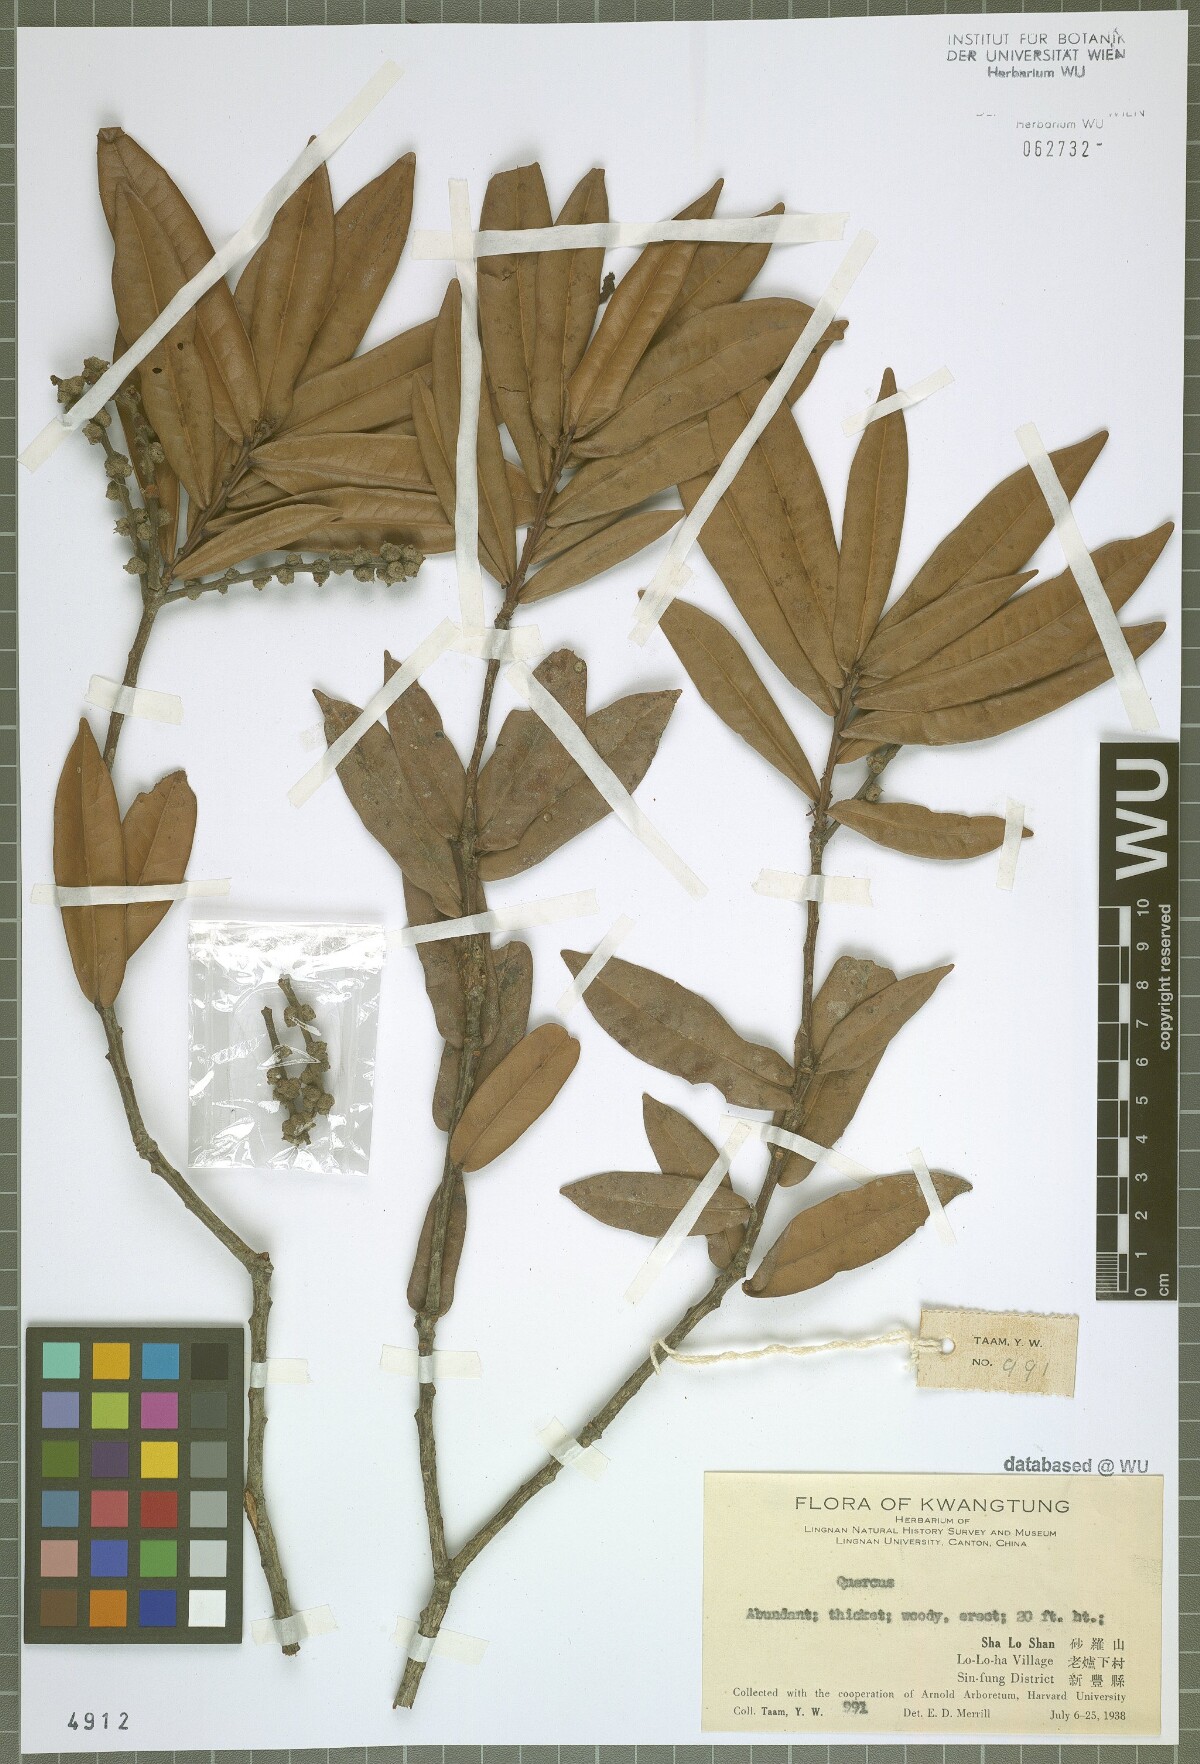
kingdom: Plantae
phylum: Tracheophyta
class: Magnoliopsida
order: Fagales
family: Fagaceae
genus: Quercus
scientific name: Quercus
